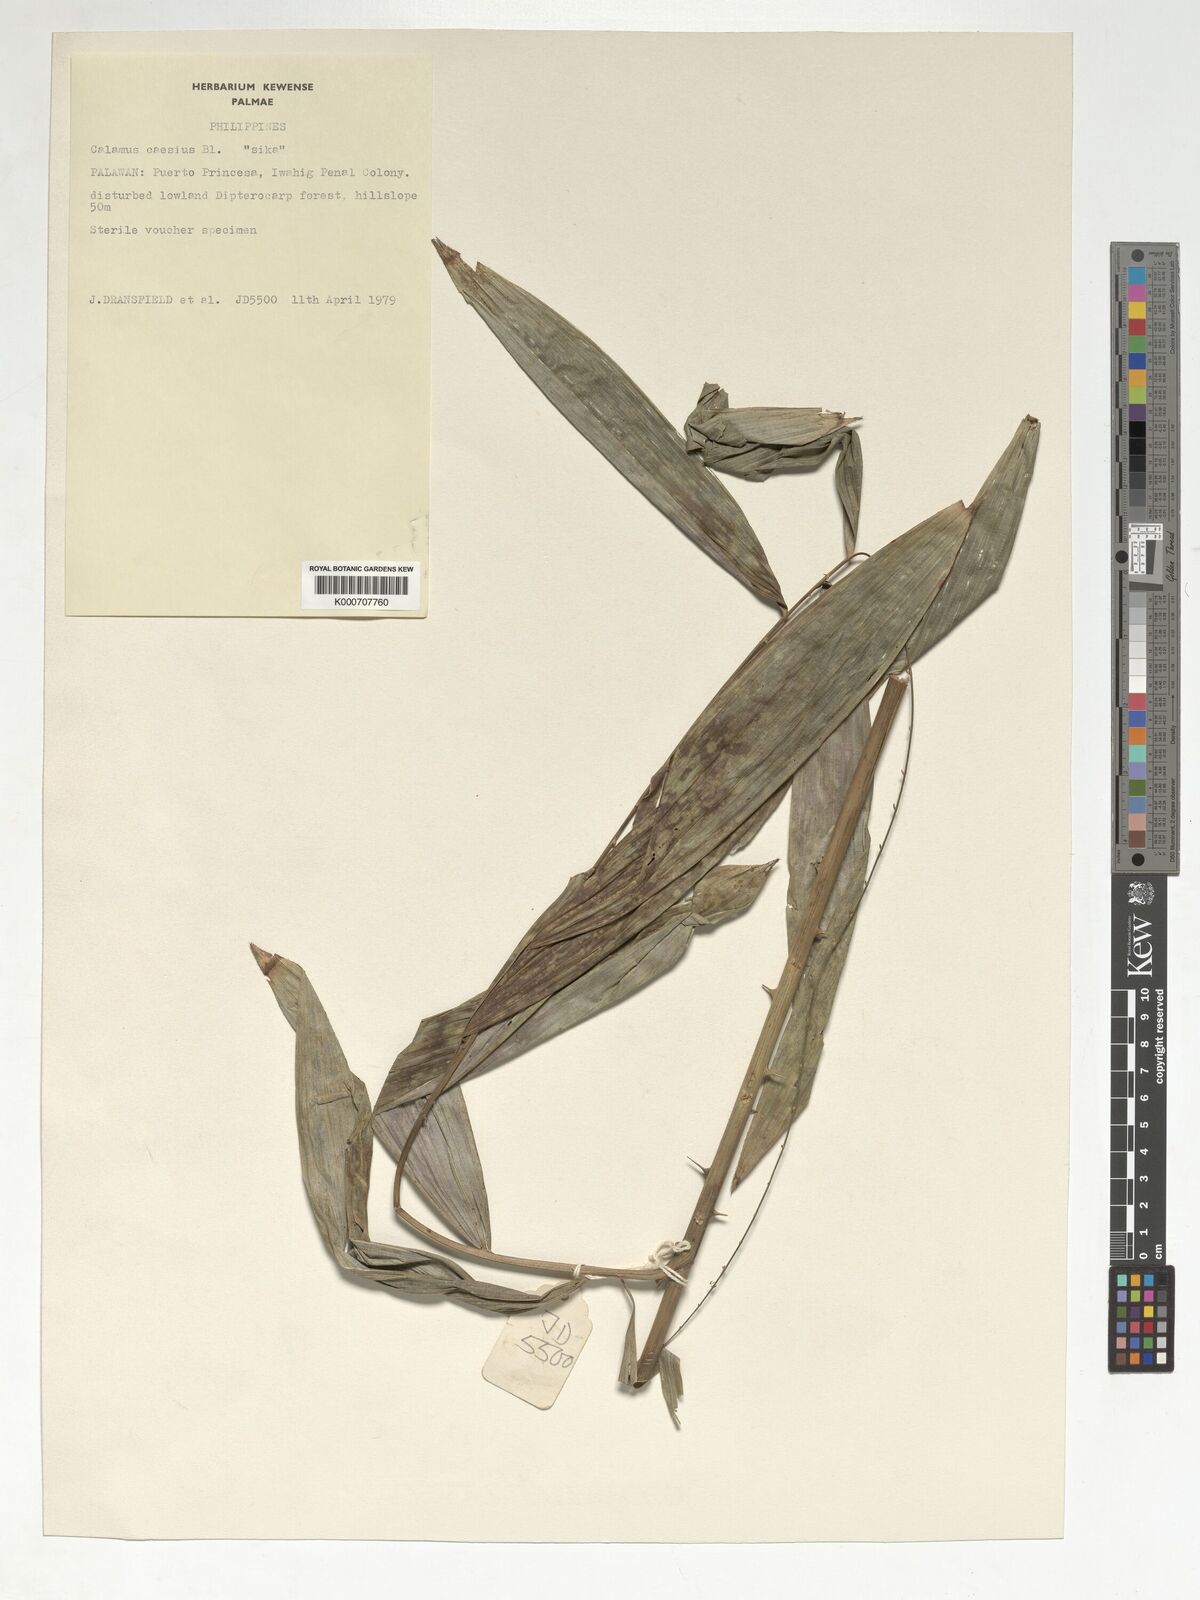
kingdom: Plantae
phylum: Tracheophyta
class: Liliopsida
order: Arecales
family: Arecaceae
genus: Calamus
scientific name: Calamus caesius
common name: Rattan palm
